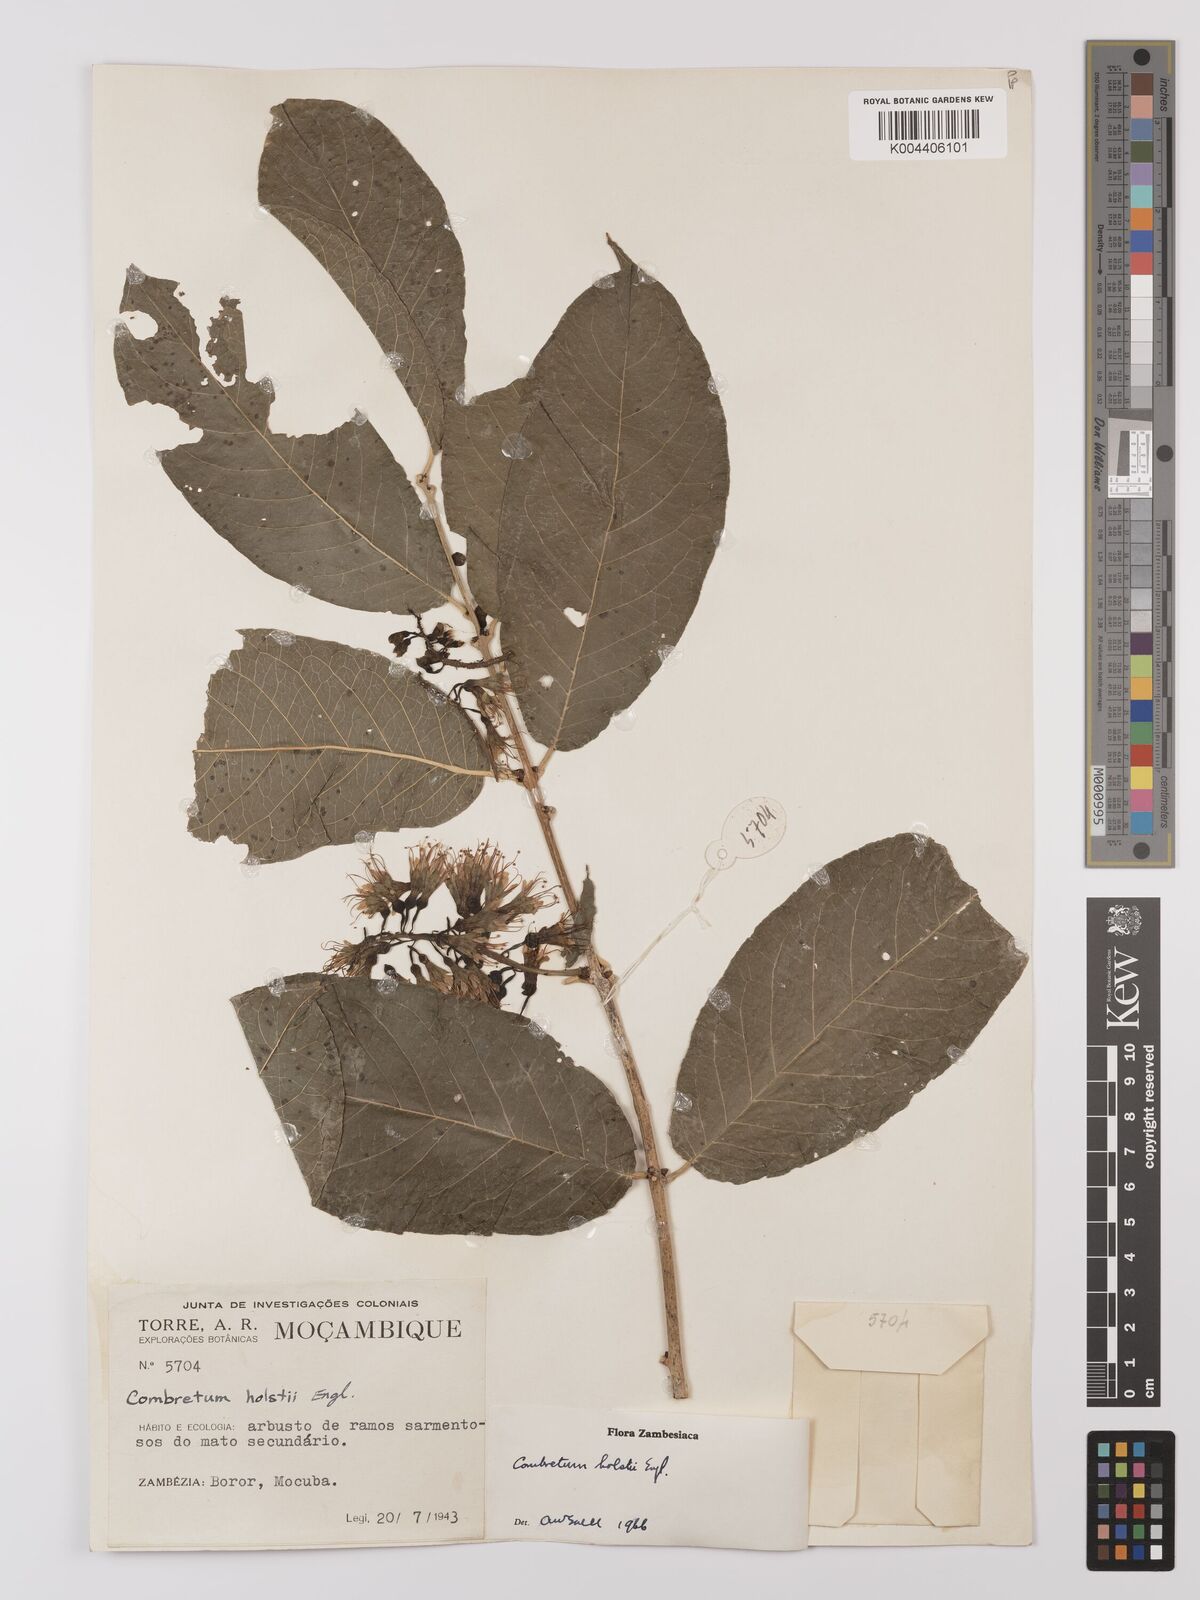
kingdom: Plantae
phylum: Tracheophyta
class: Magnoliopsida
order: Myrtales
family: Combretaceae
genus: Combretum
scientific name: Combretum holstii
